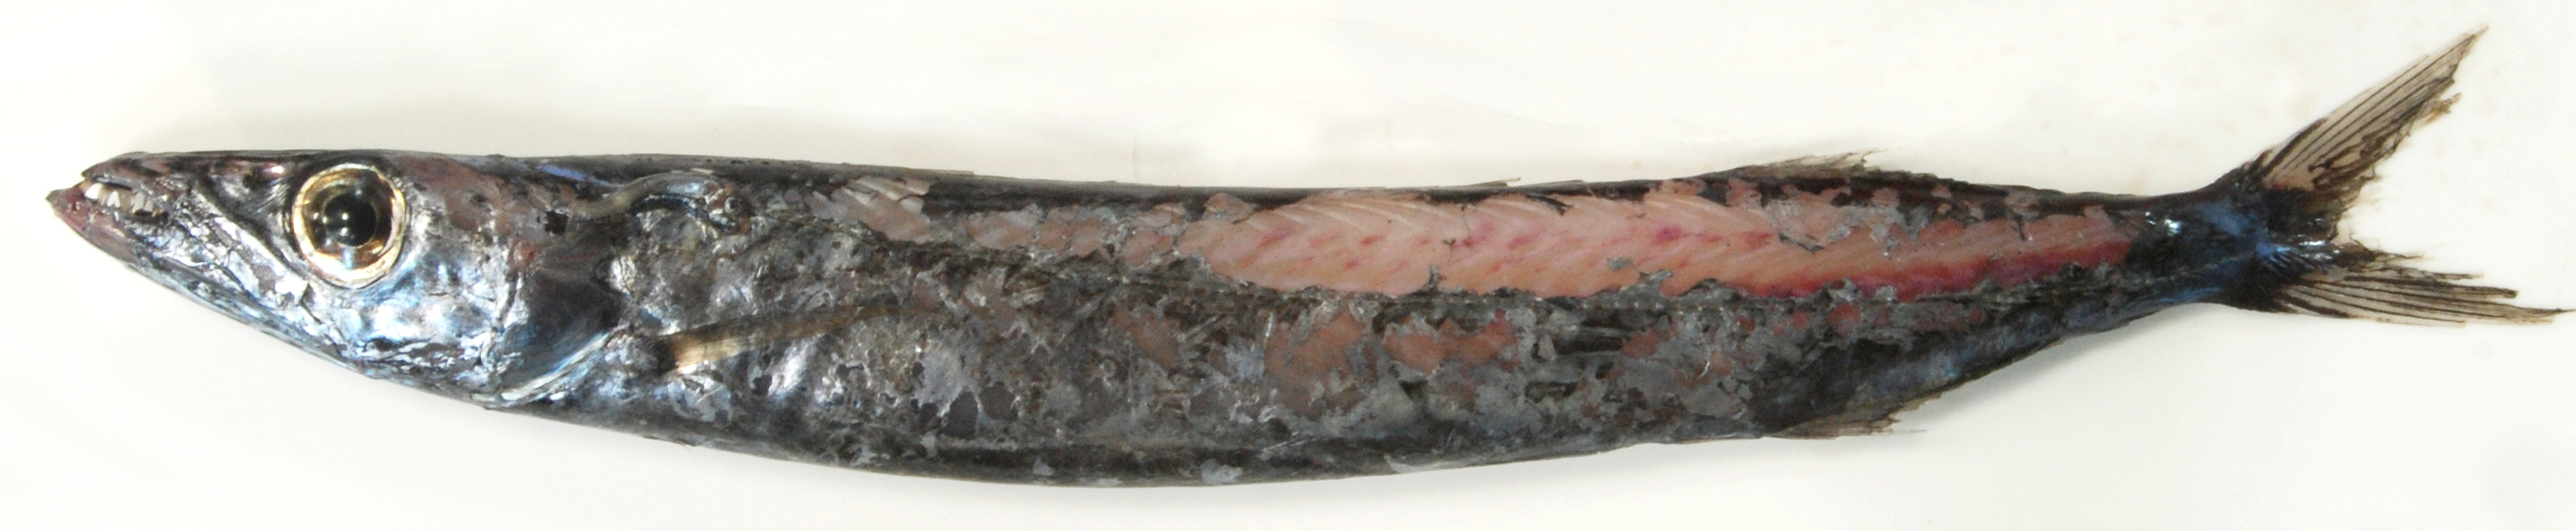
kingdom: Animalia
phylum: Chordata
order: Perciformes
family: Gempylidae
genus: Rexea
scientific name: Rexea prometheoides
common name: Royal escolar
